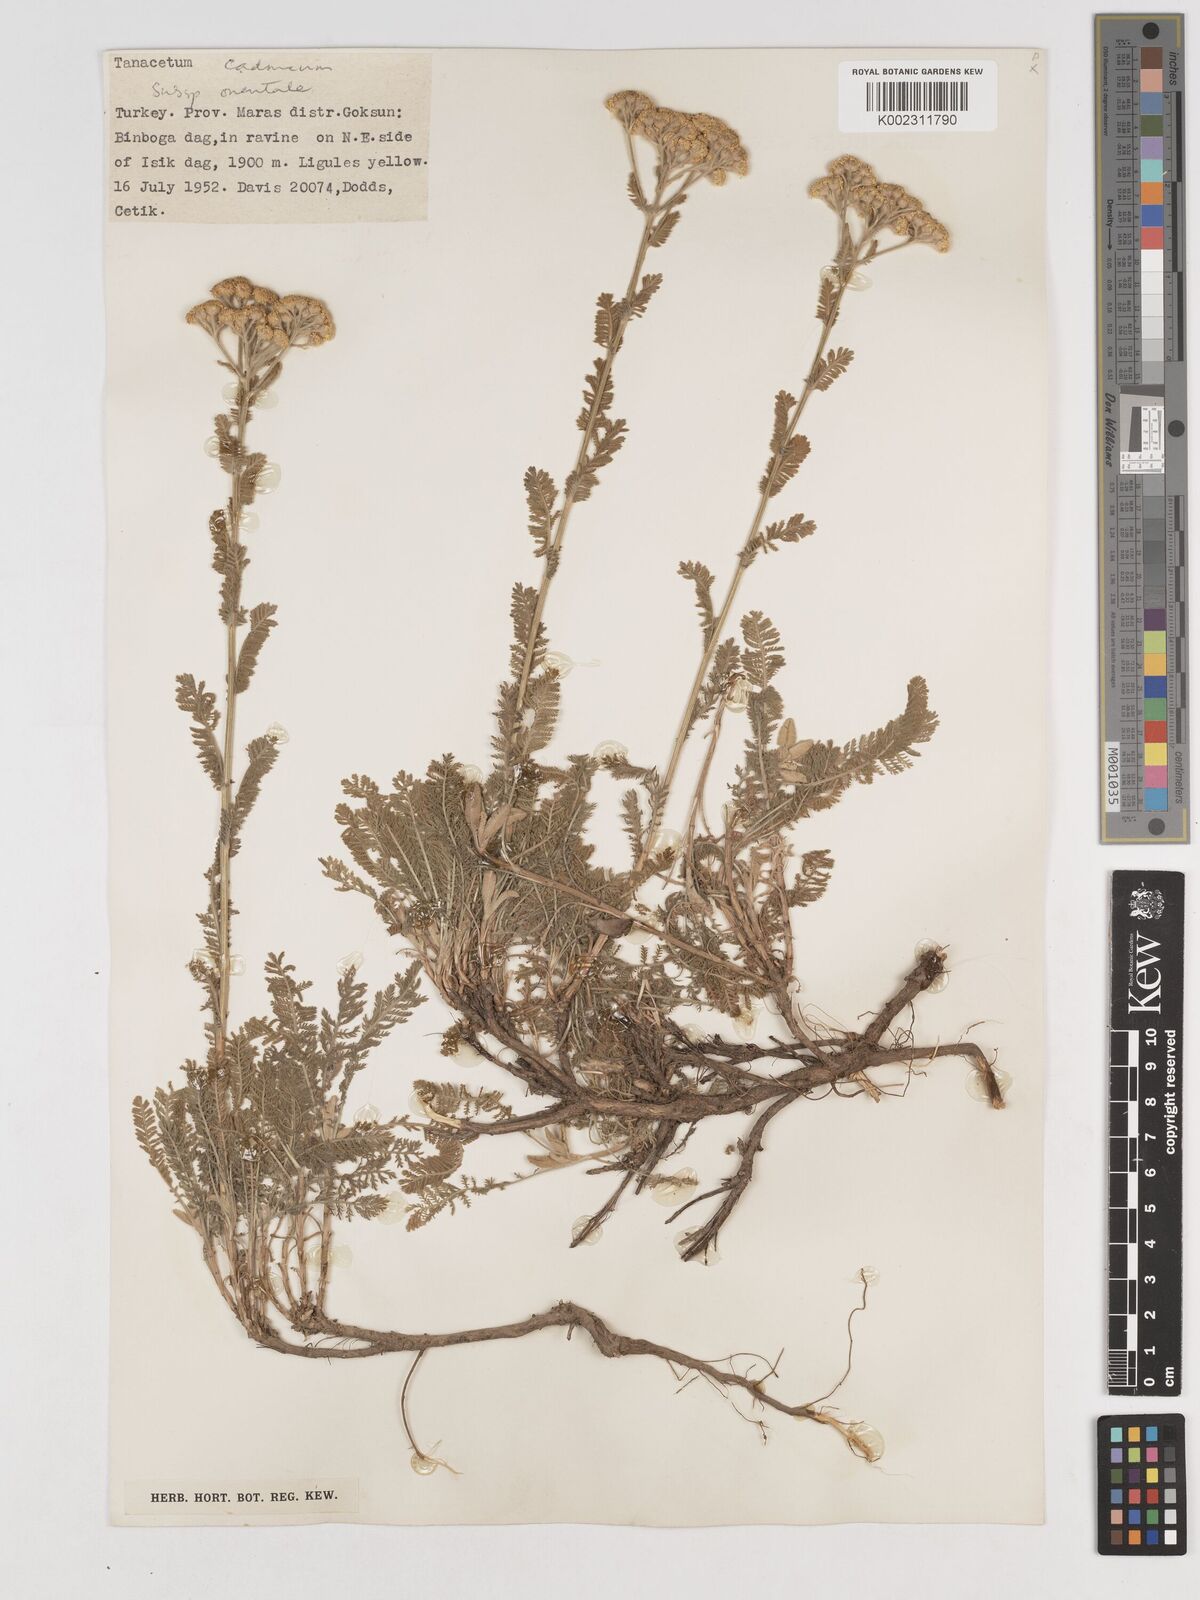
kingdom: Plantae
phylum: Tracheophyta
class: Magnoliopsida
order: Asterales
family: Asteraceae
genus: Tanacetum
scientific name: Tanacetum cadmeum
